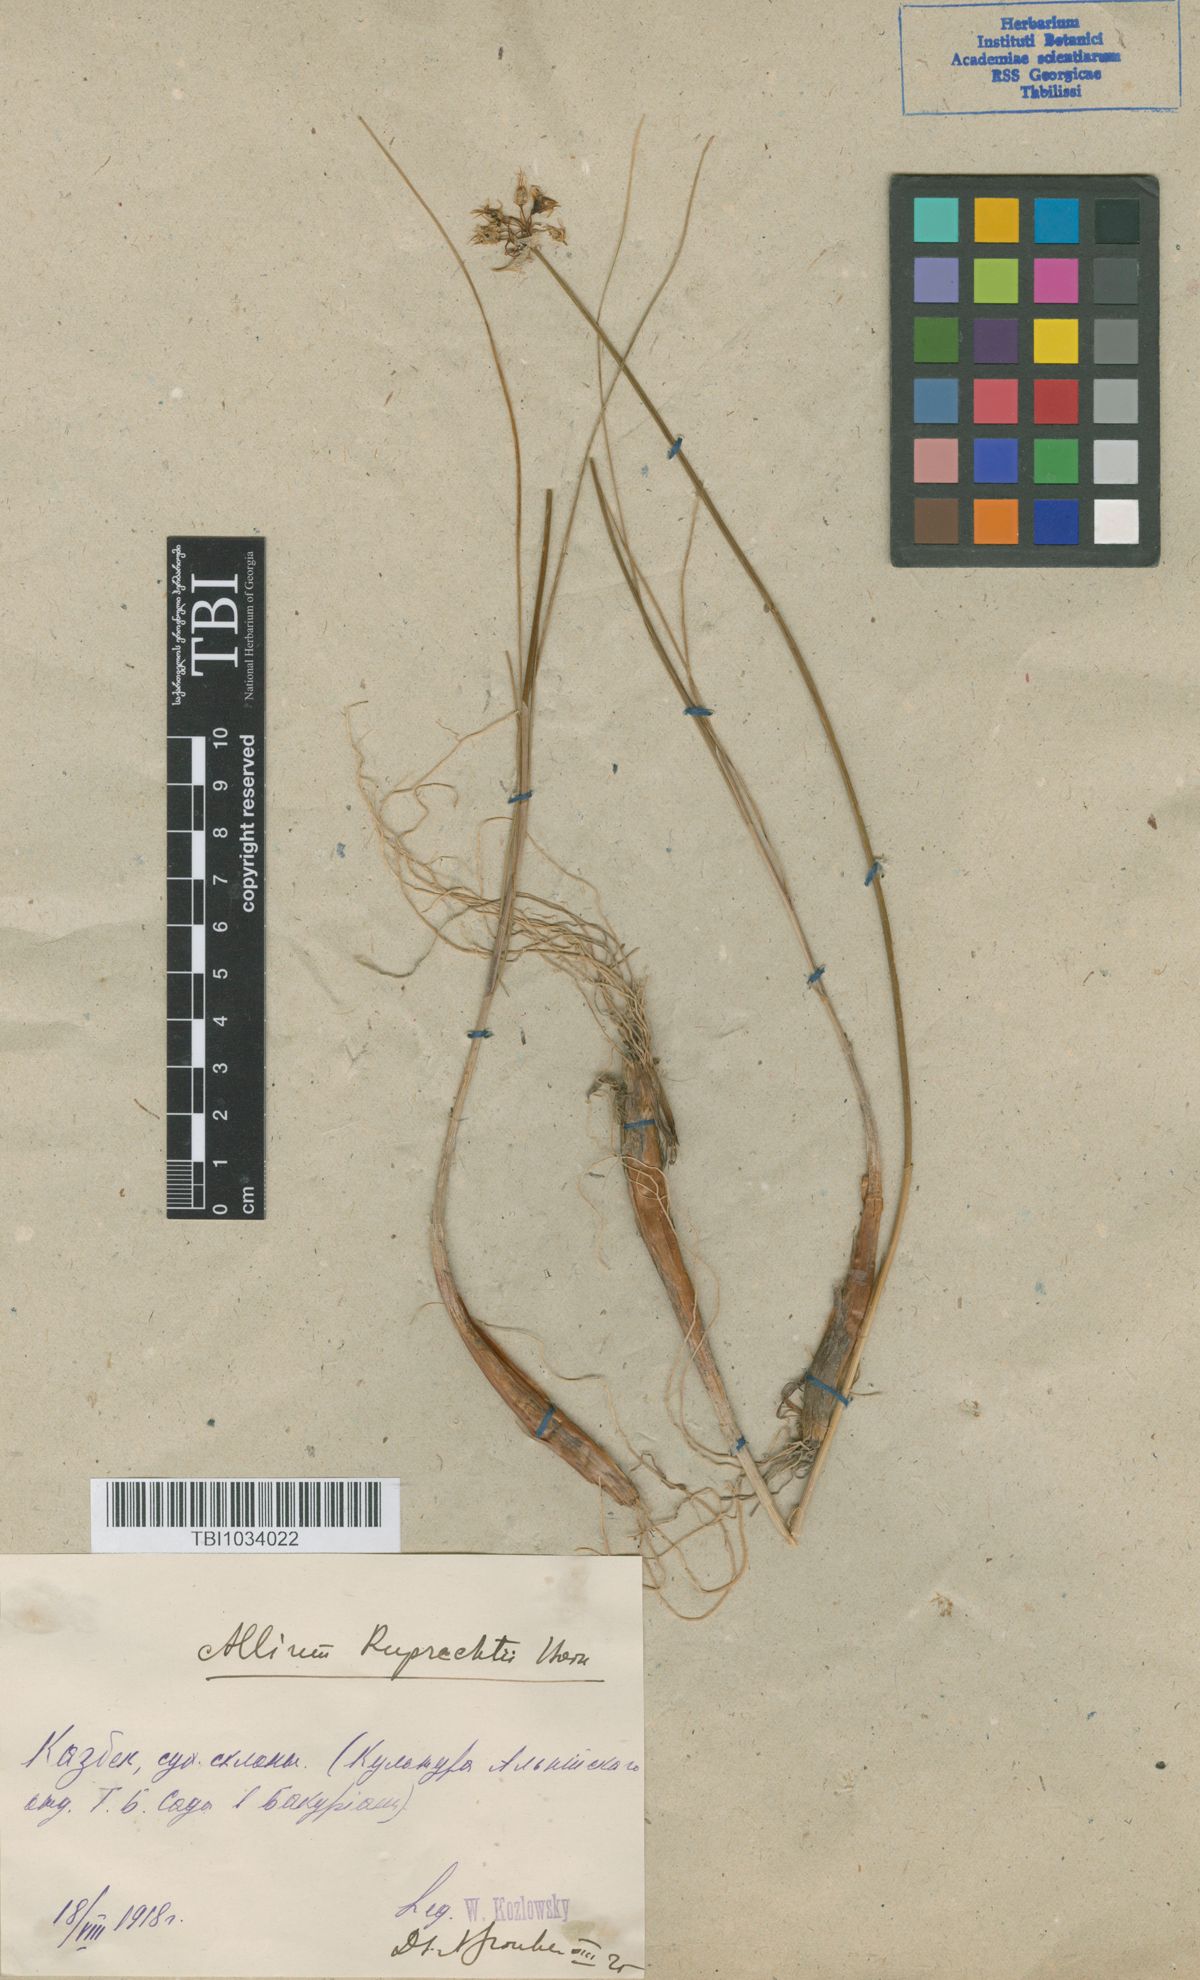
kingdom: Plantae
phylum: Tracheophyta
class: Liliopsida
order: Asparagales
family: Amaryllidaceae
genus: Allium
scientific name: Allium saxatile
